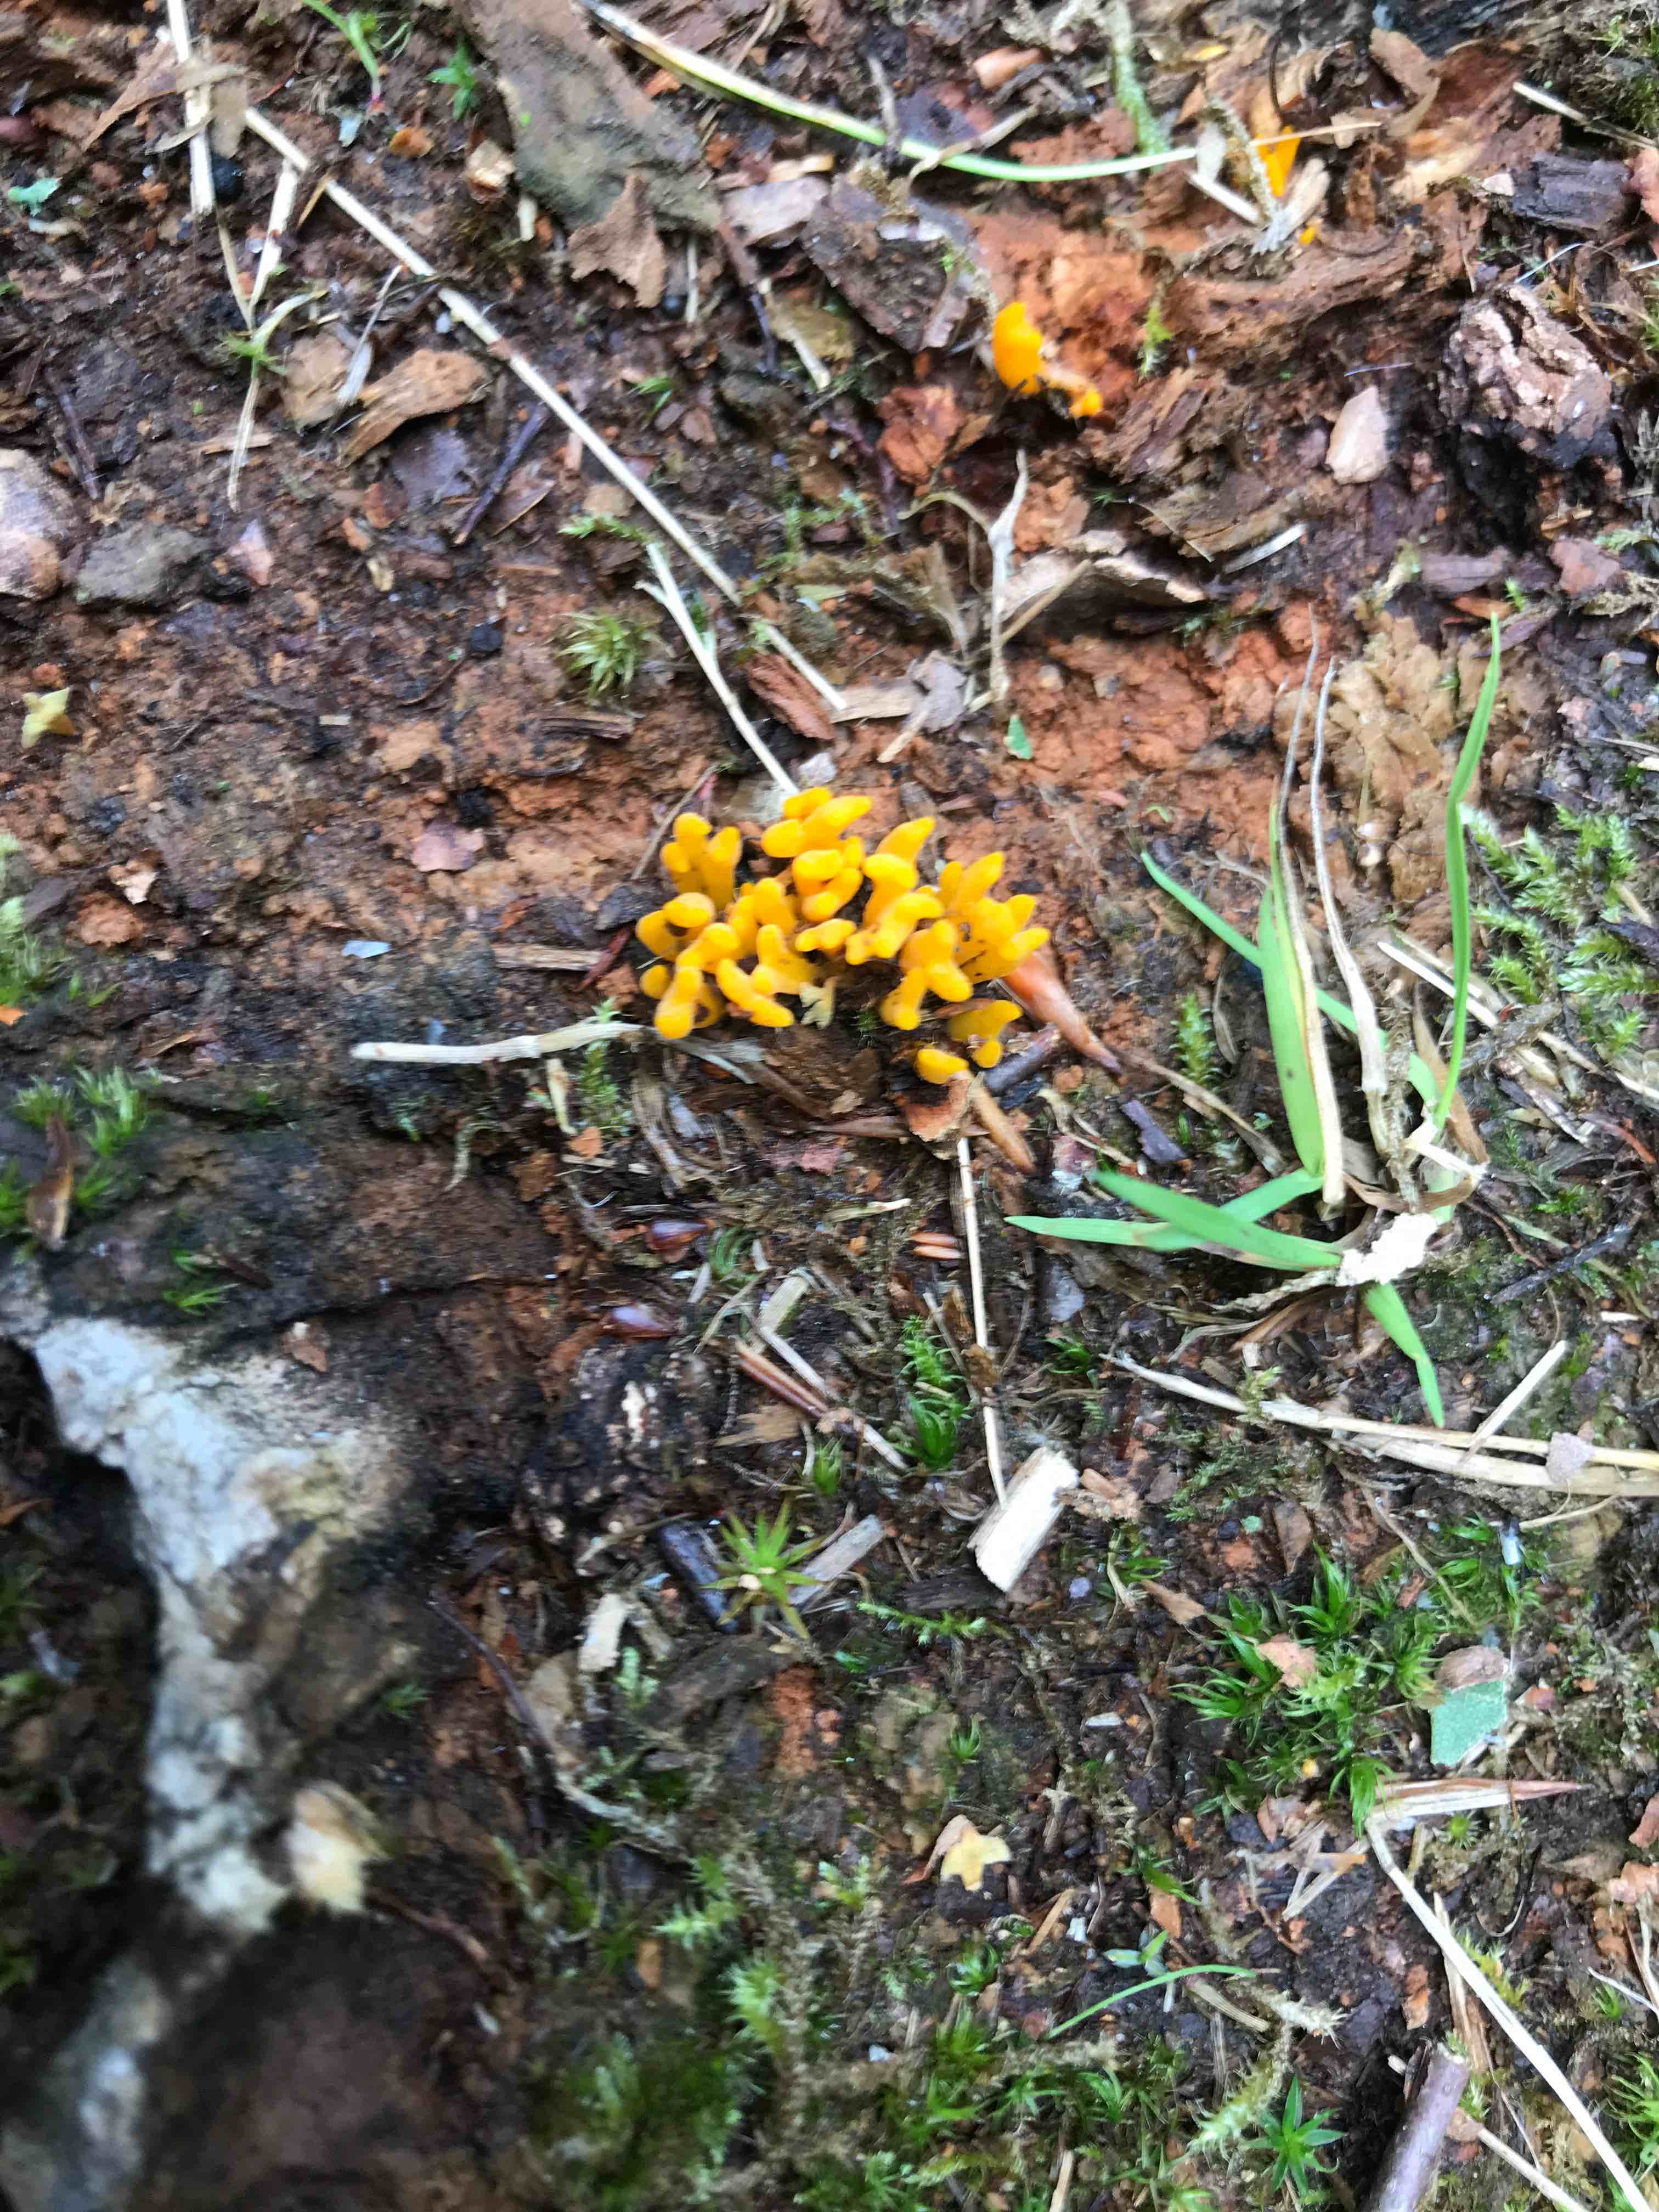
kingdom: Fungi
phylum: Basidiomycota
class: Dacrymycetes
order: Dacrymycetales
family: Dacrymycetaceae
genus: Calocera
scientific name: Calocera viscosa
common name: almindelig guldgaffel
